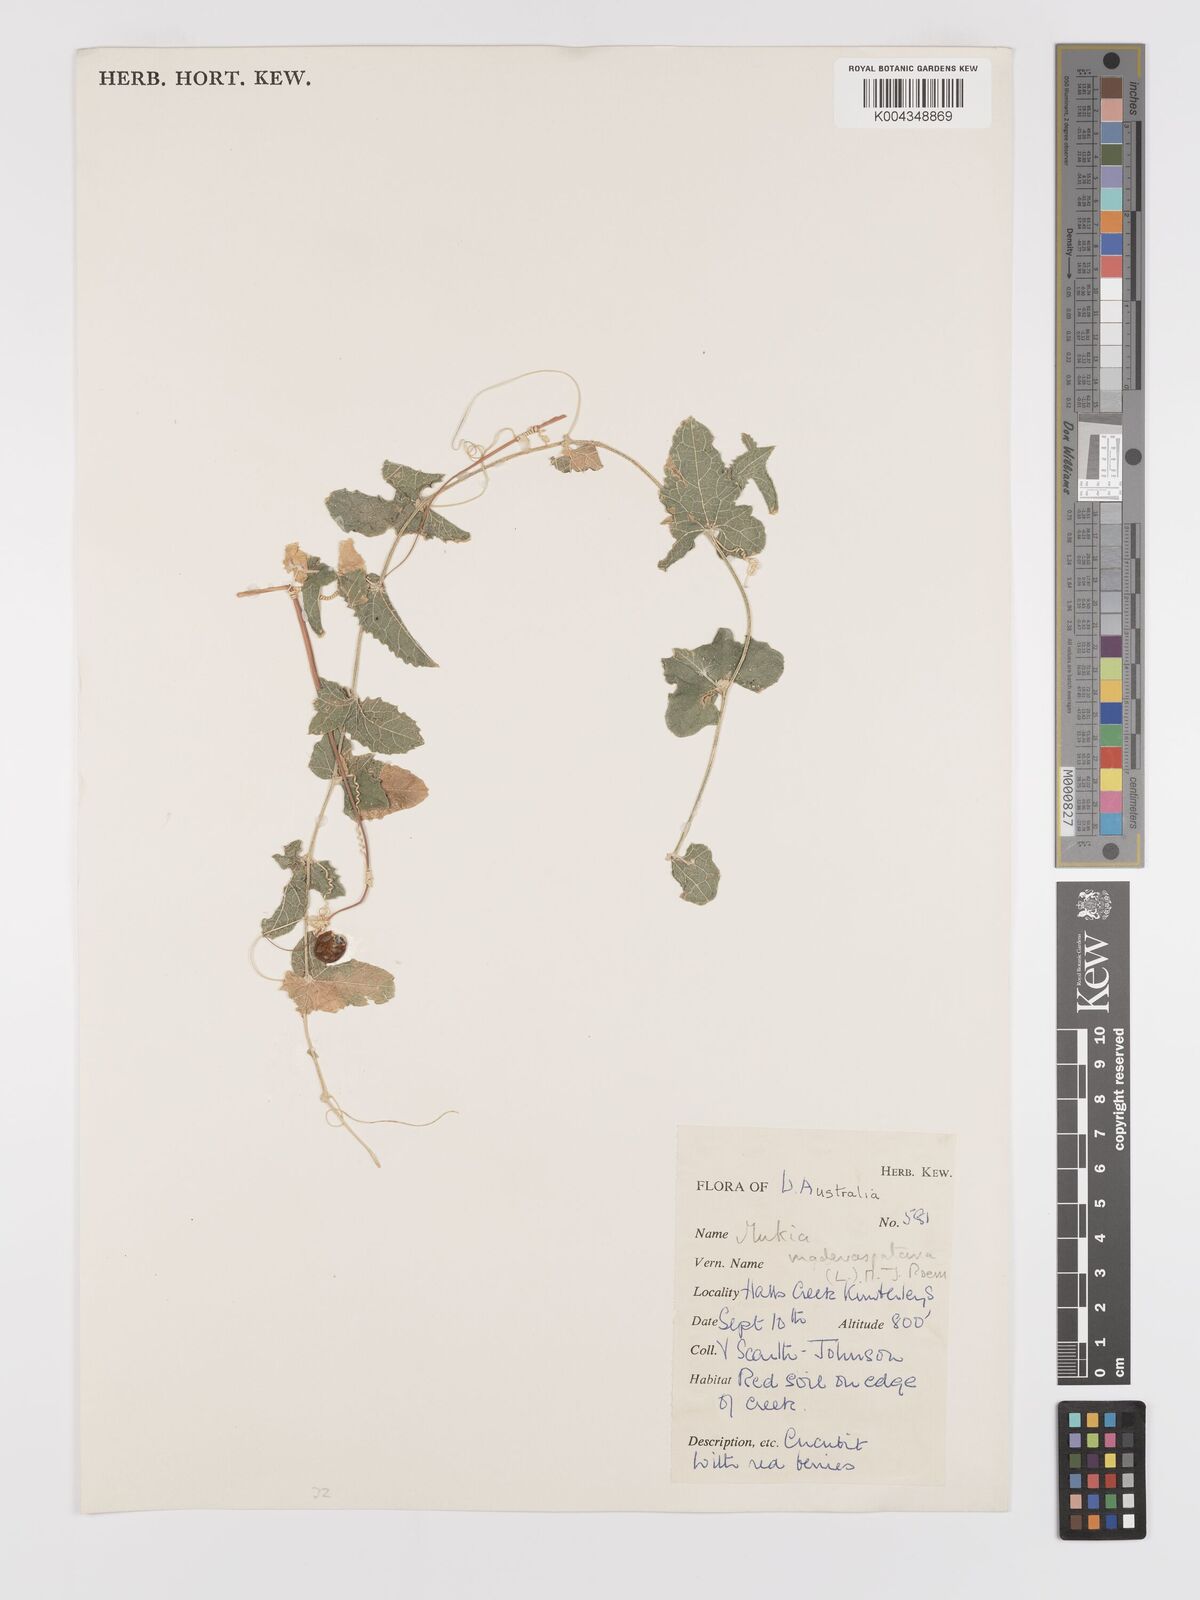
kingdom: Animalia
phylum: Arthropoda
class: Insecta
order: Lepidoptera
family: Crambidae
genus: Mukia
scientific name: Mukia
